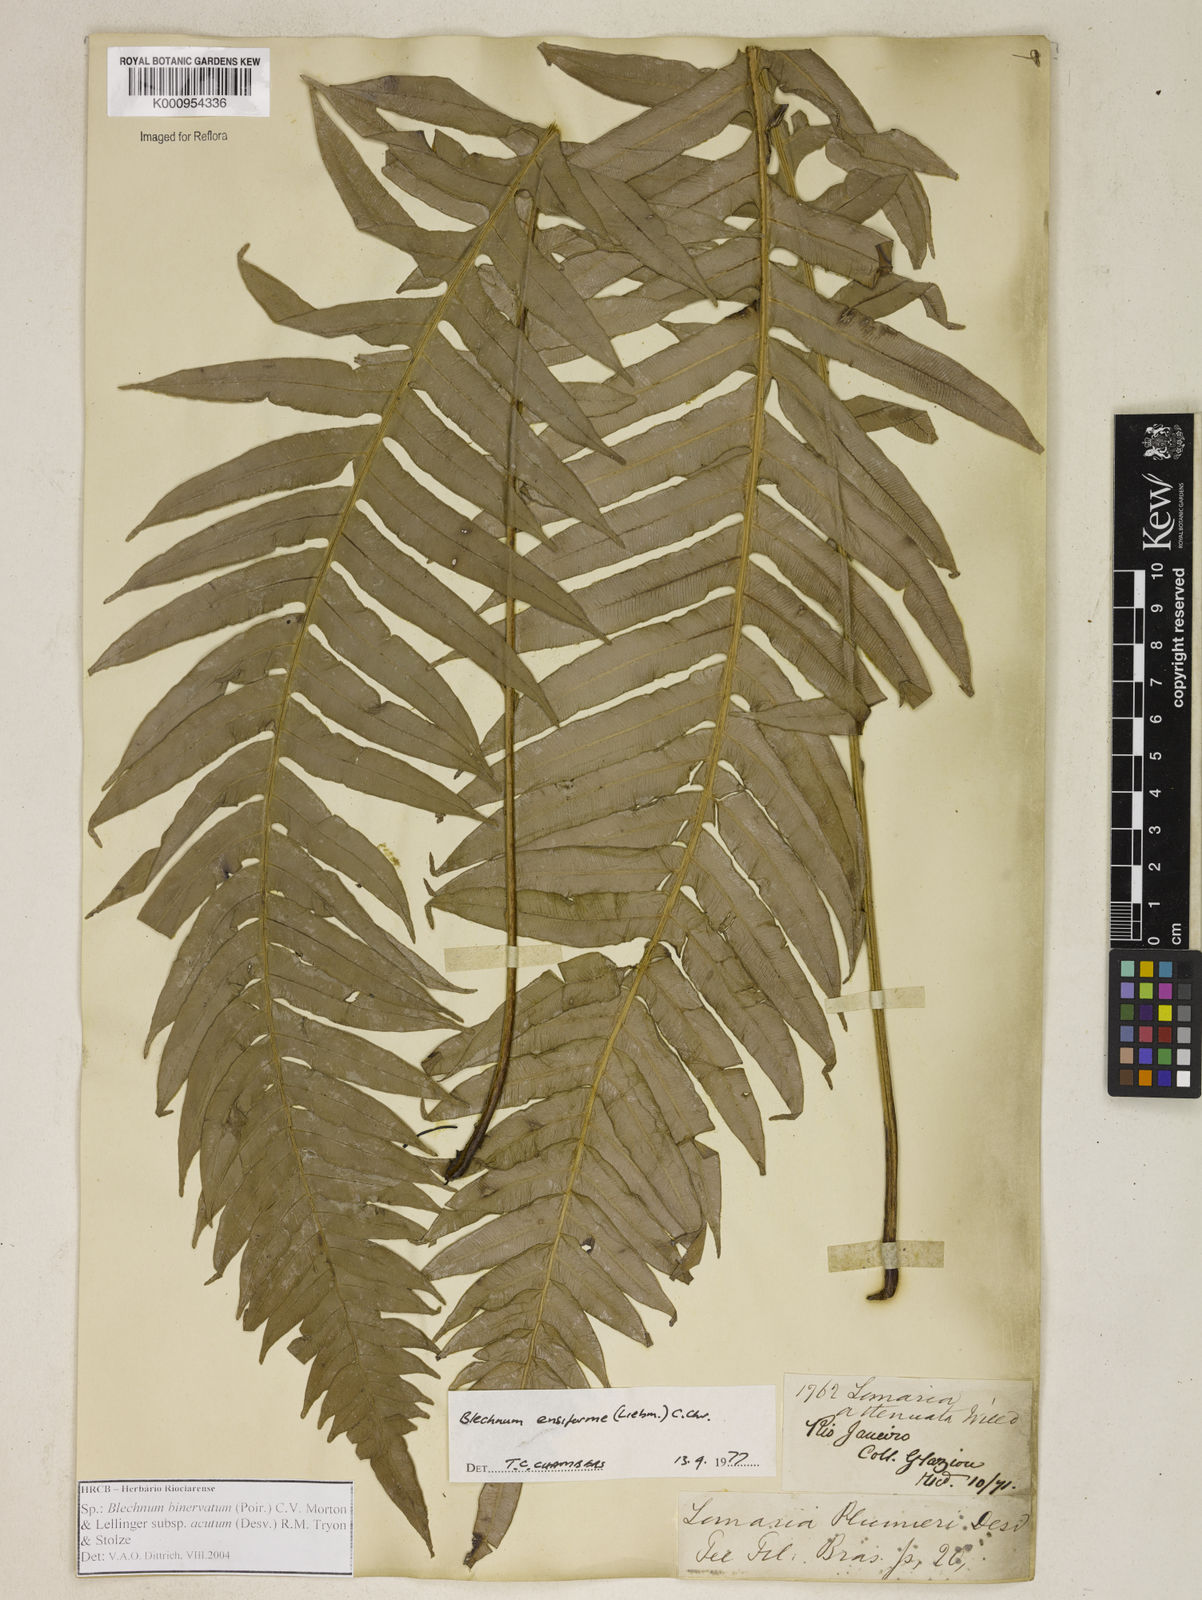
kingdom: Plantae
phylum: Tracheophyta
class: Polypodiopsida
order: Polypodiales
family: Blechnaceae
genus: Lomaridium
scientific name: Lomaridium ensiforme
